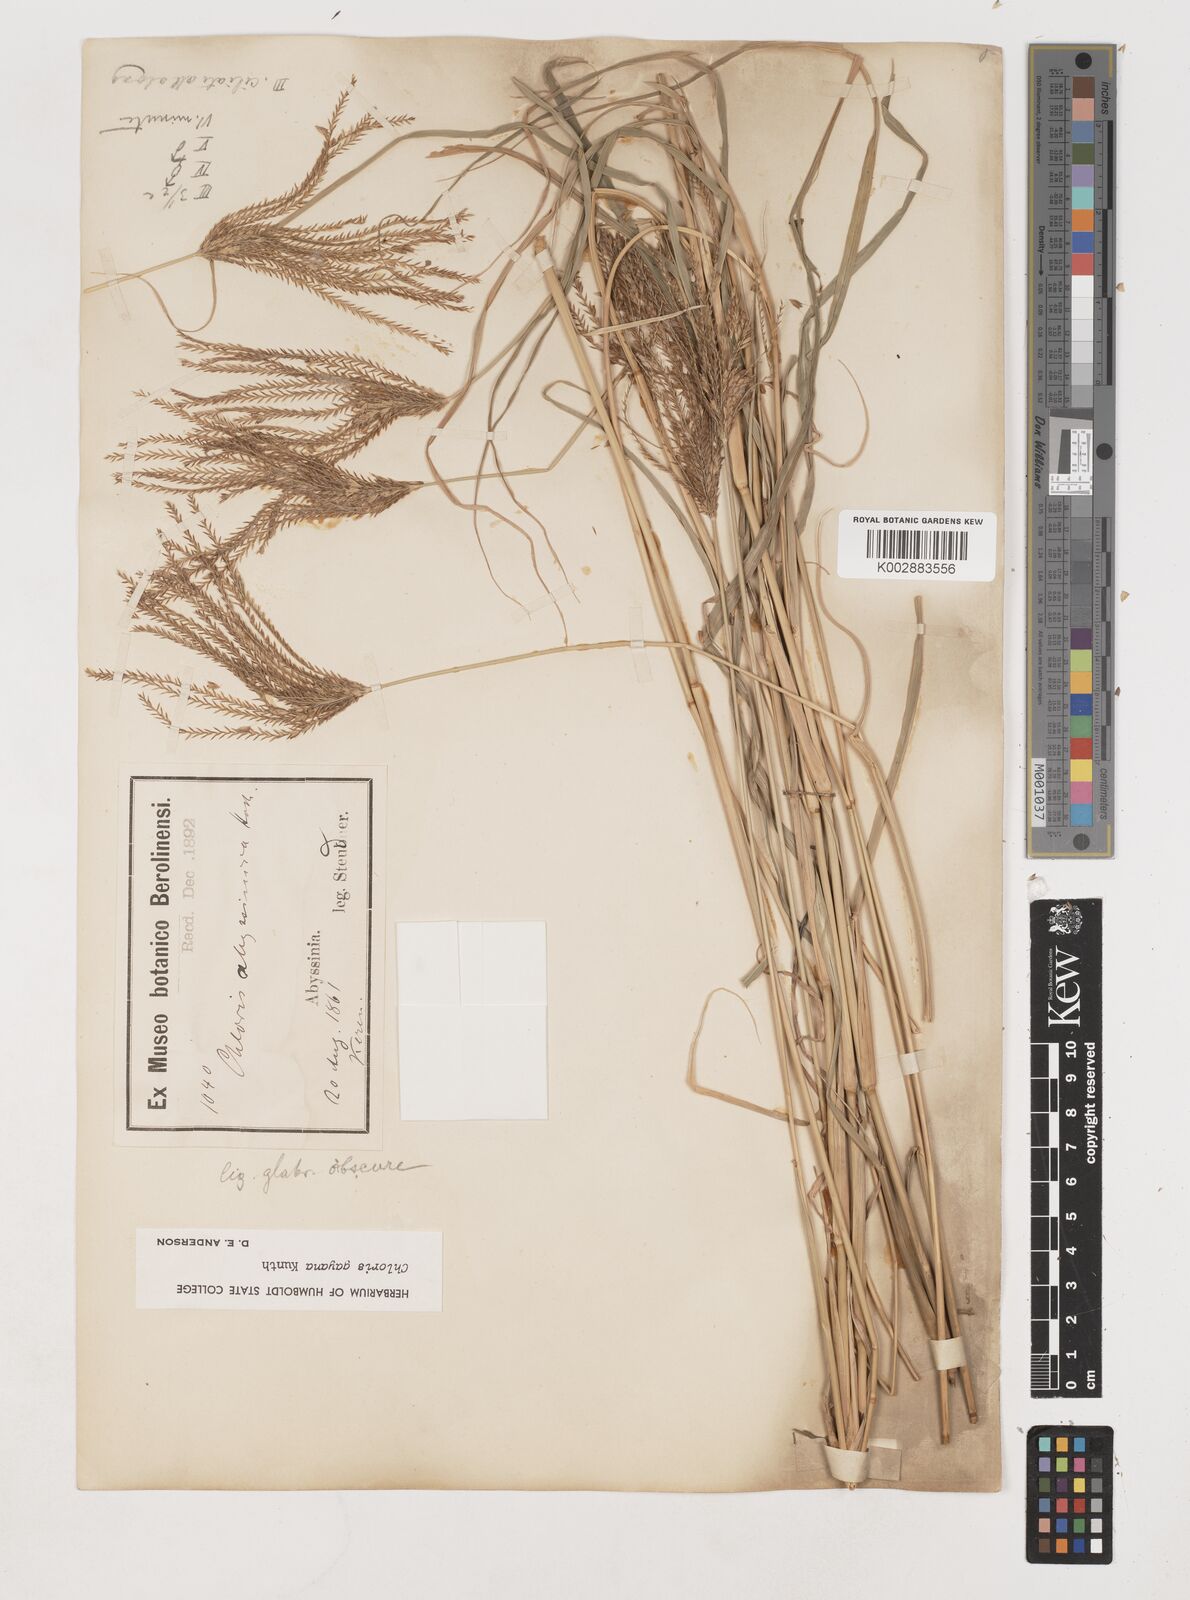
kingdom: Plantae
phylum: Tracheophyta
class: Liliopsida
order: Poales
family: Poaceae
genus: Chloris
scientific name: Chloris gayana
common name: Rhodes grass
